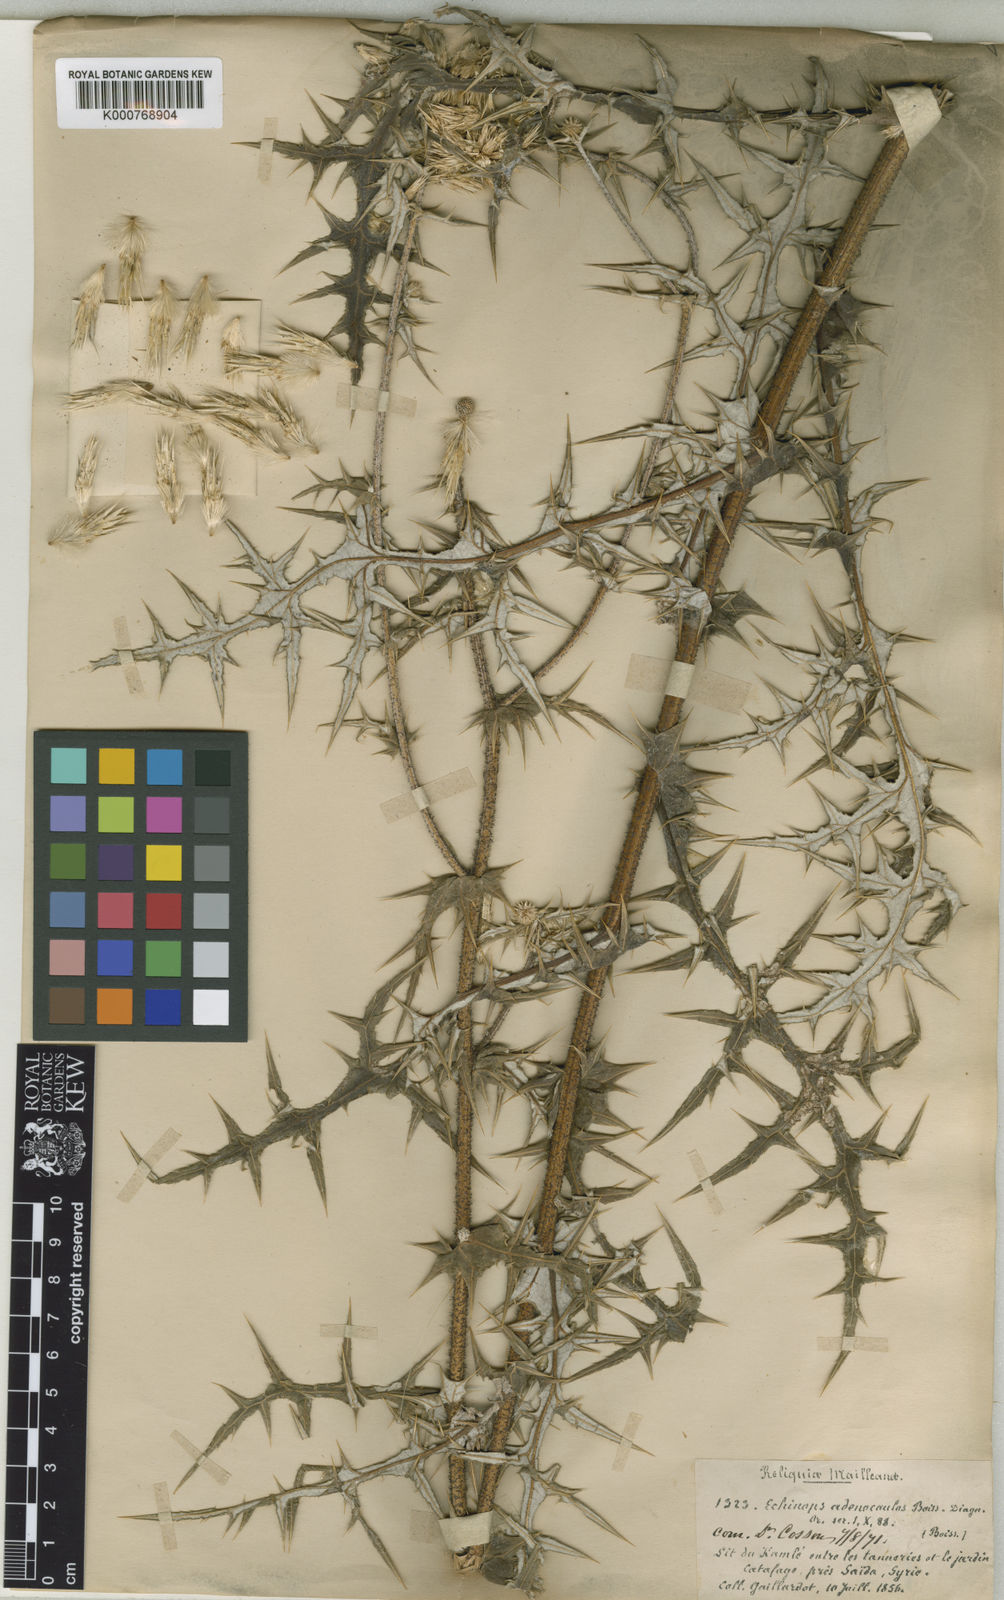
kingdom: Plantae
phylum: Tracheophyta
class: Magnoliopsida
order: Asterales
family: Asteraceae
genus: Echinops
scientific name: Echinops gaillardotii
